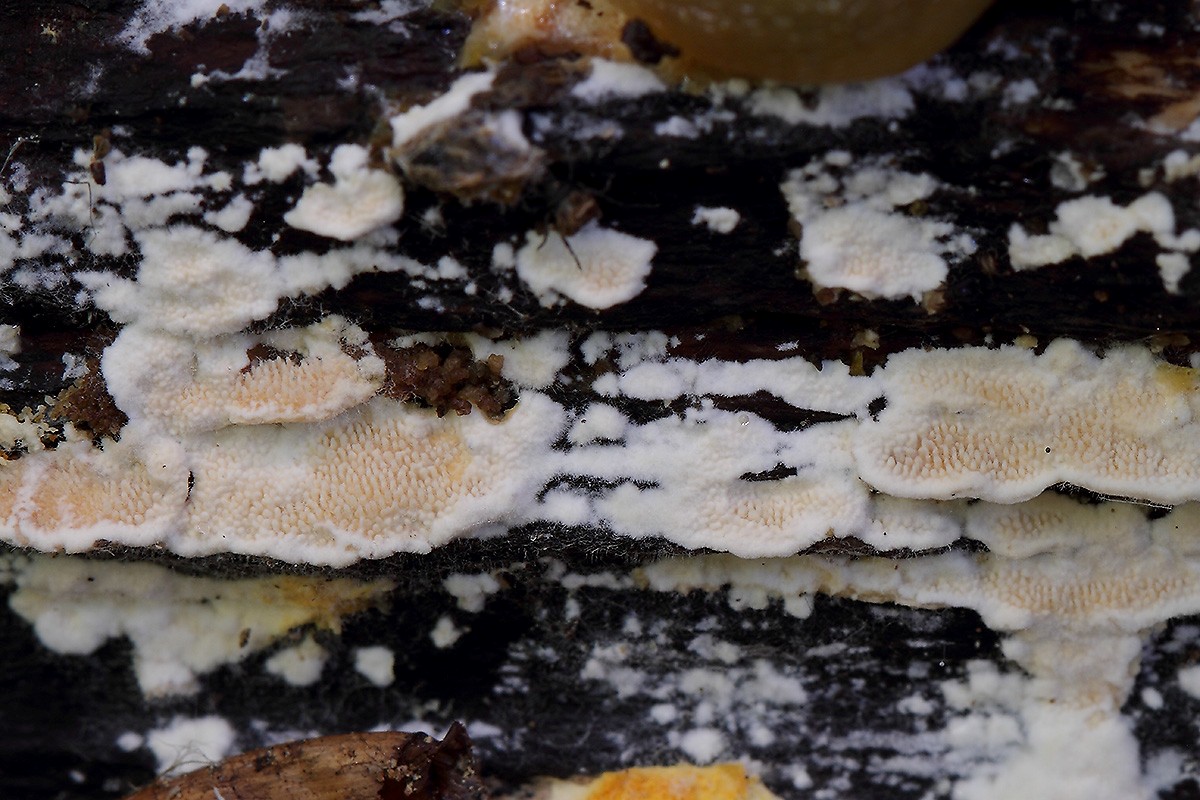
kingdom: Fungi
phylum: Basidiomycota
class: Agaricomycetes
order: Polyporales
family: Steccherinaceae
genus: Steccherinum
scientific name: Steccherinum ochraceum
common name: almindelig skønpig
